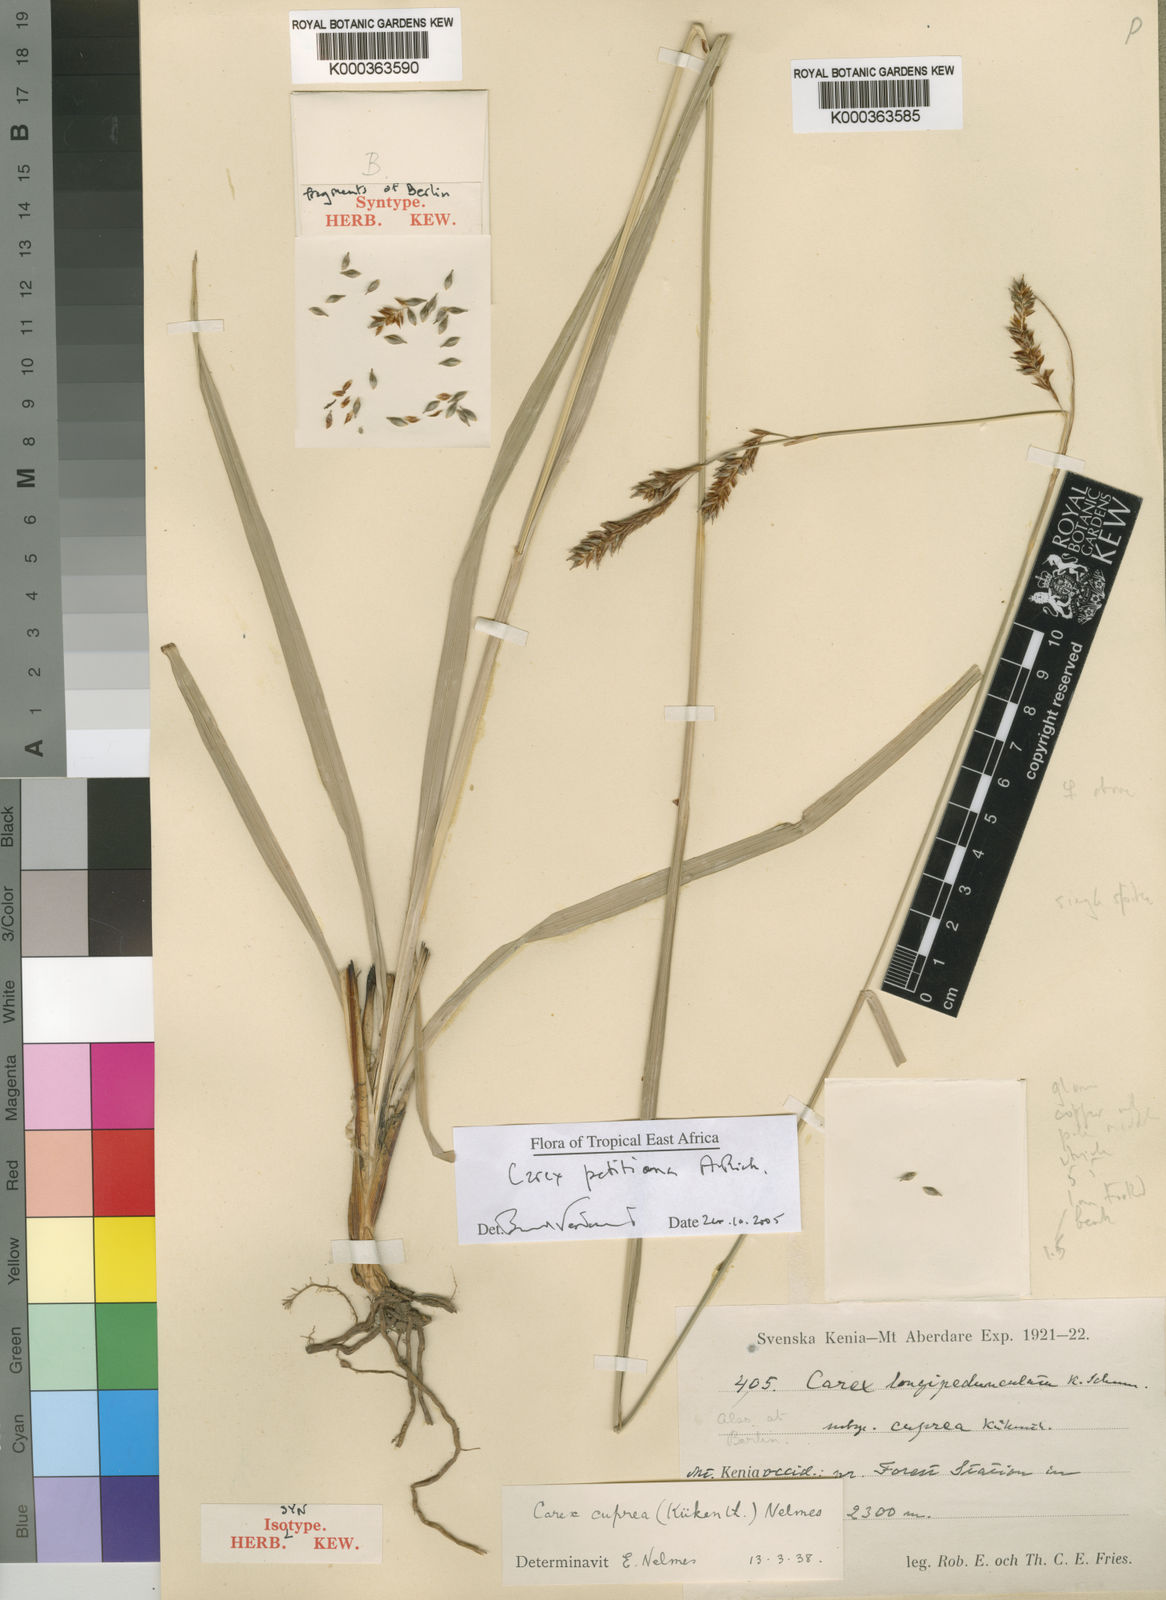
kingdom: Plantae
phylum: Tracheophyta
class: Liliopsida
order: Poales
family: Cyperaceae
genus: Carex
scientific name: Carex
